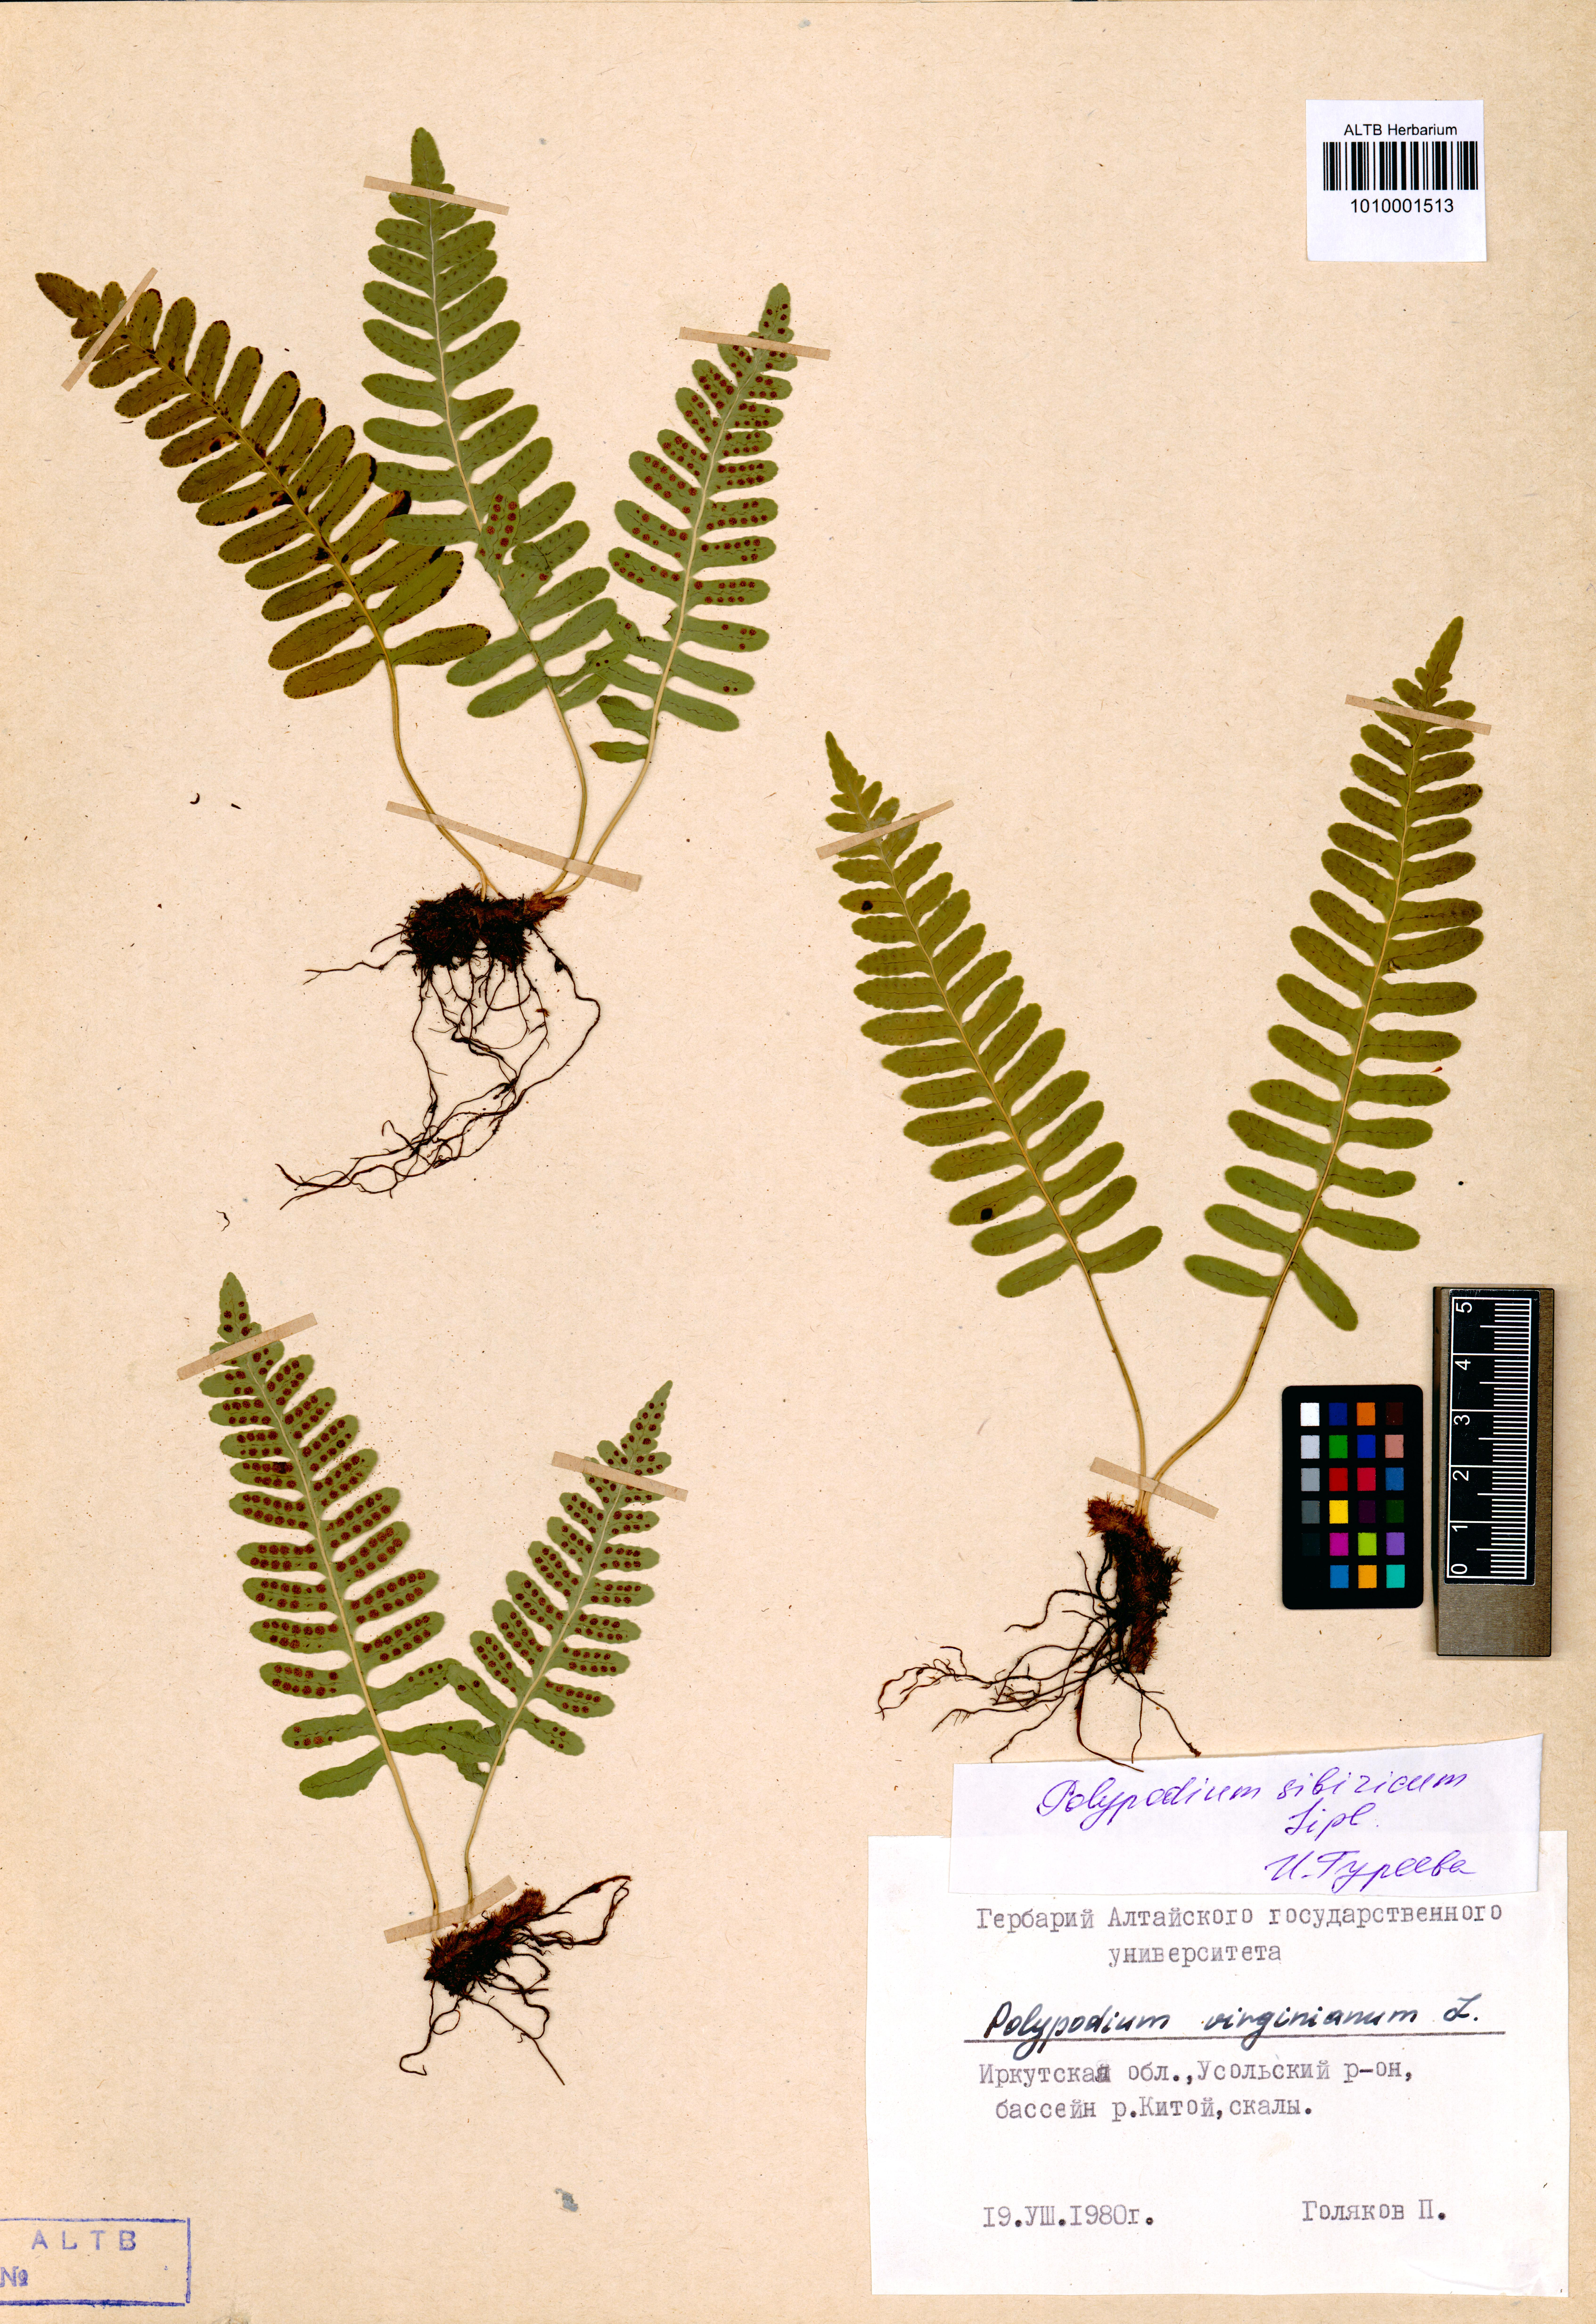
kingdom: Plantae
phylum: Tracheophyta
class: Polypodiopsida
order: Polypodiales
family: Polypodiaceae
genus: Polypodium
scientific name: Polypodium sibiricum
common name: Siberian polypody
